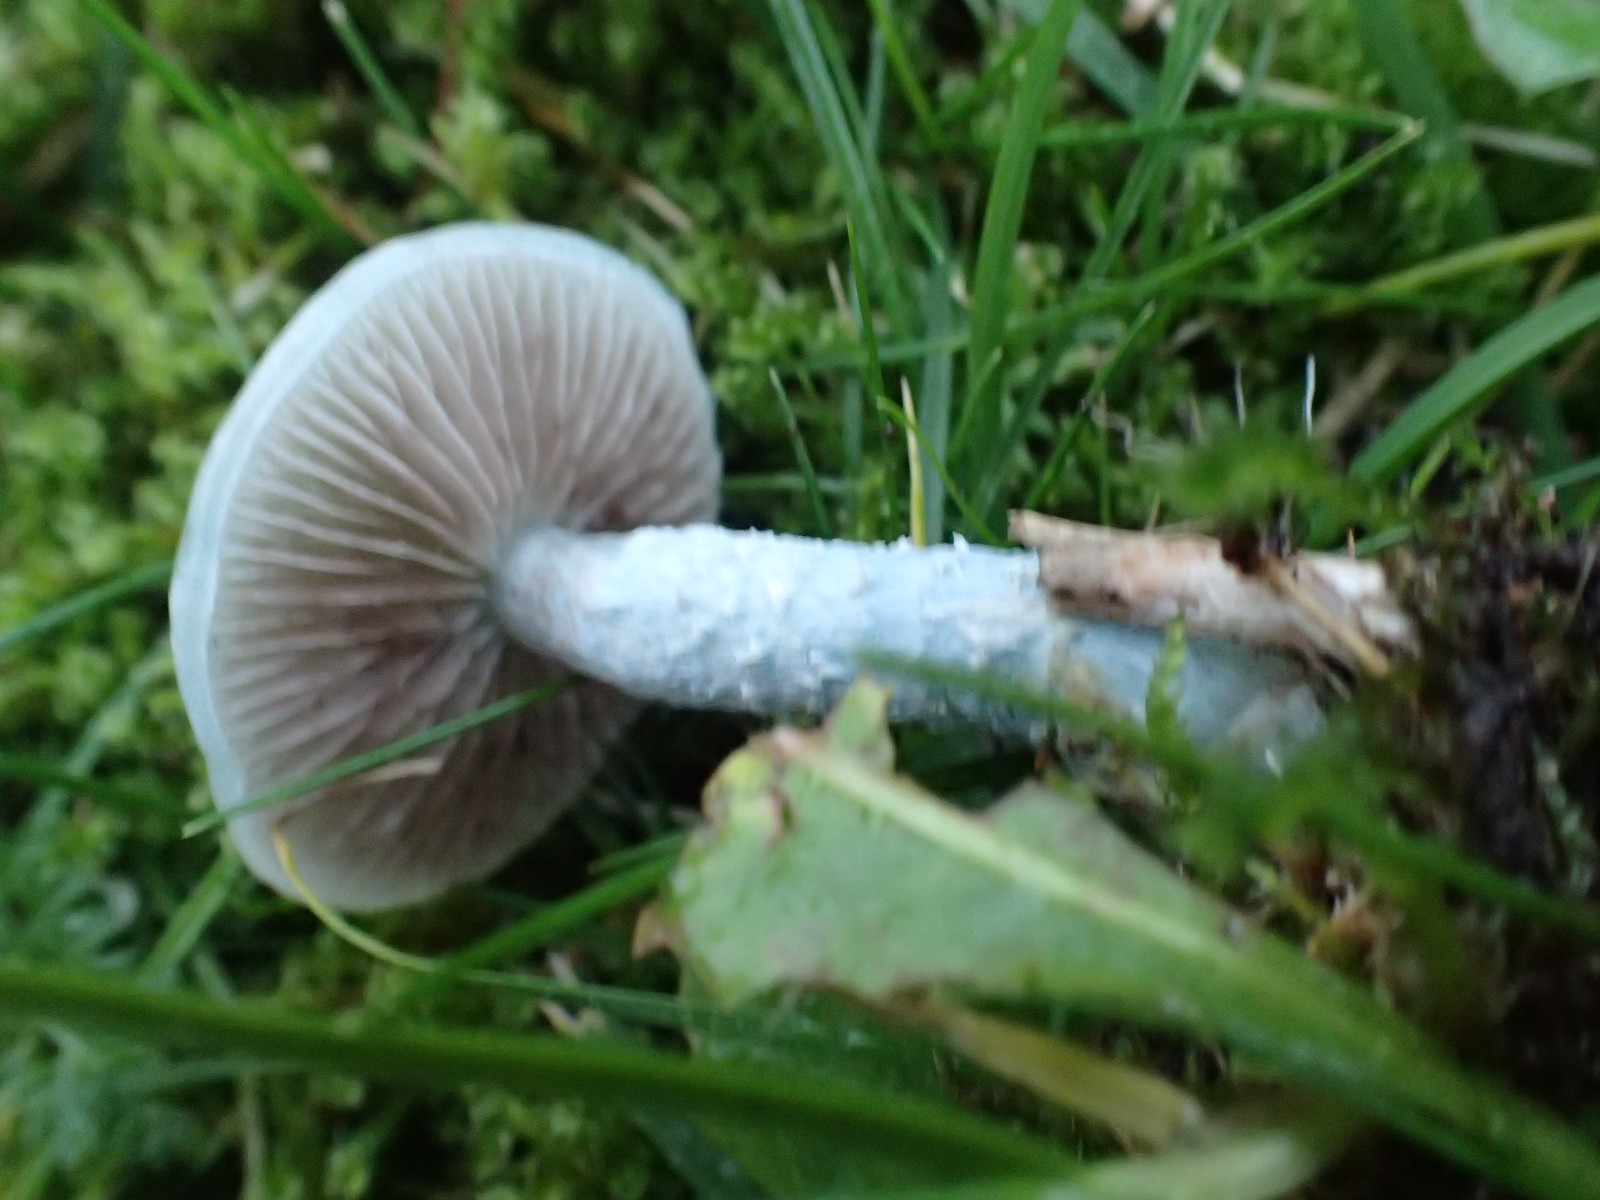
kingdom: Fungi
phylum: Basidiomycota
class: Agaricomycetes
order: Agaricales
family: Strophariaceae
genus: Stropharia
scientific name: Stropharia
